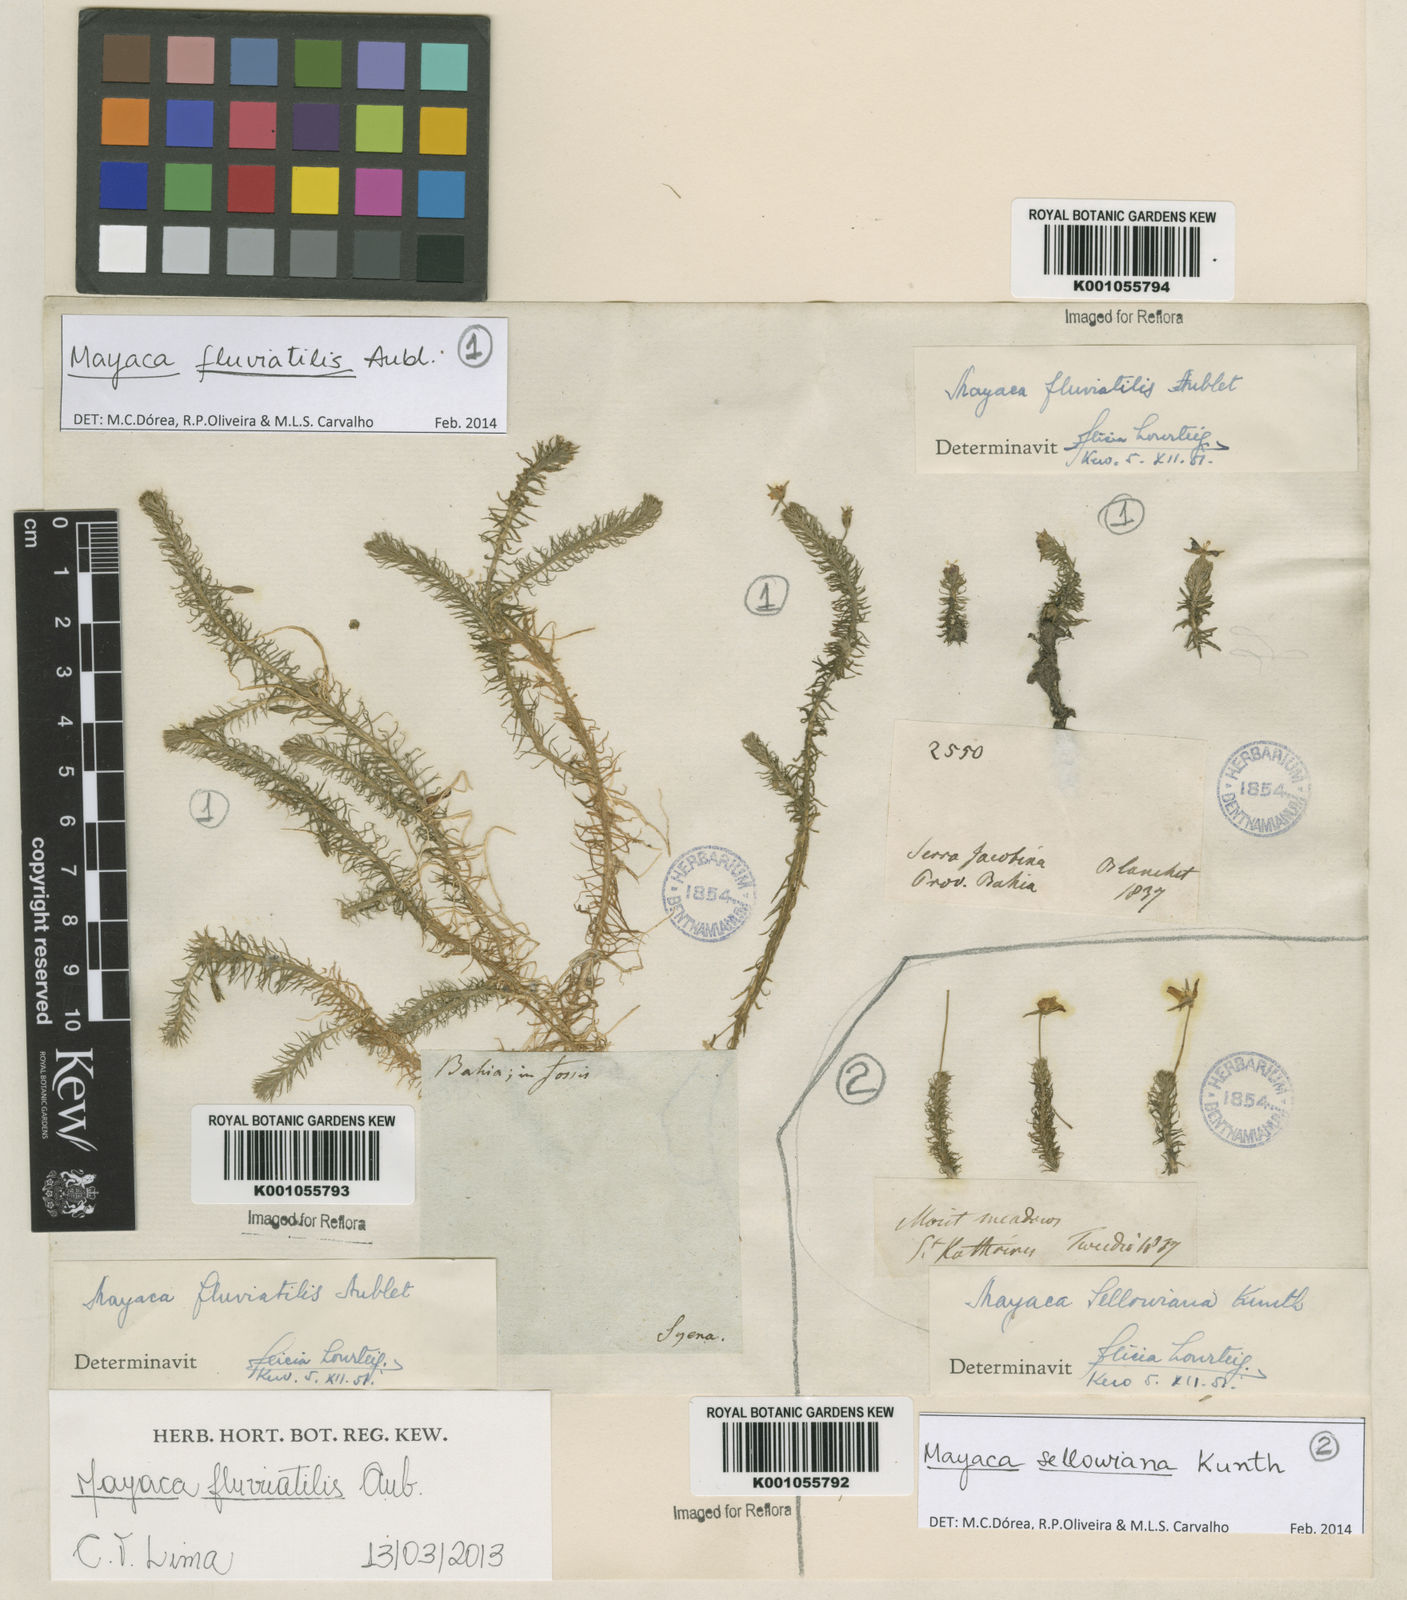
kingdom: Plantae
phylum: Tracheophyta
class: Liliopsida
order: Poales
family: Mayacaceae
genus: Mayaca
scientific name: Mayaca
